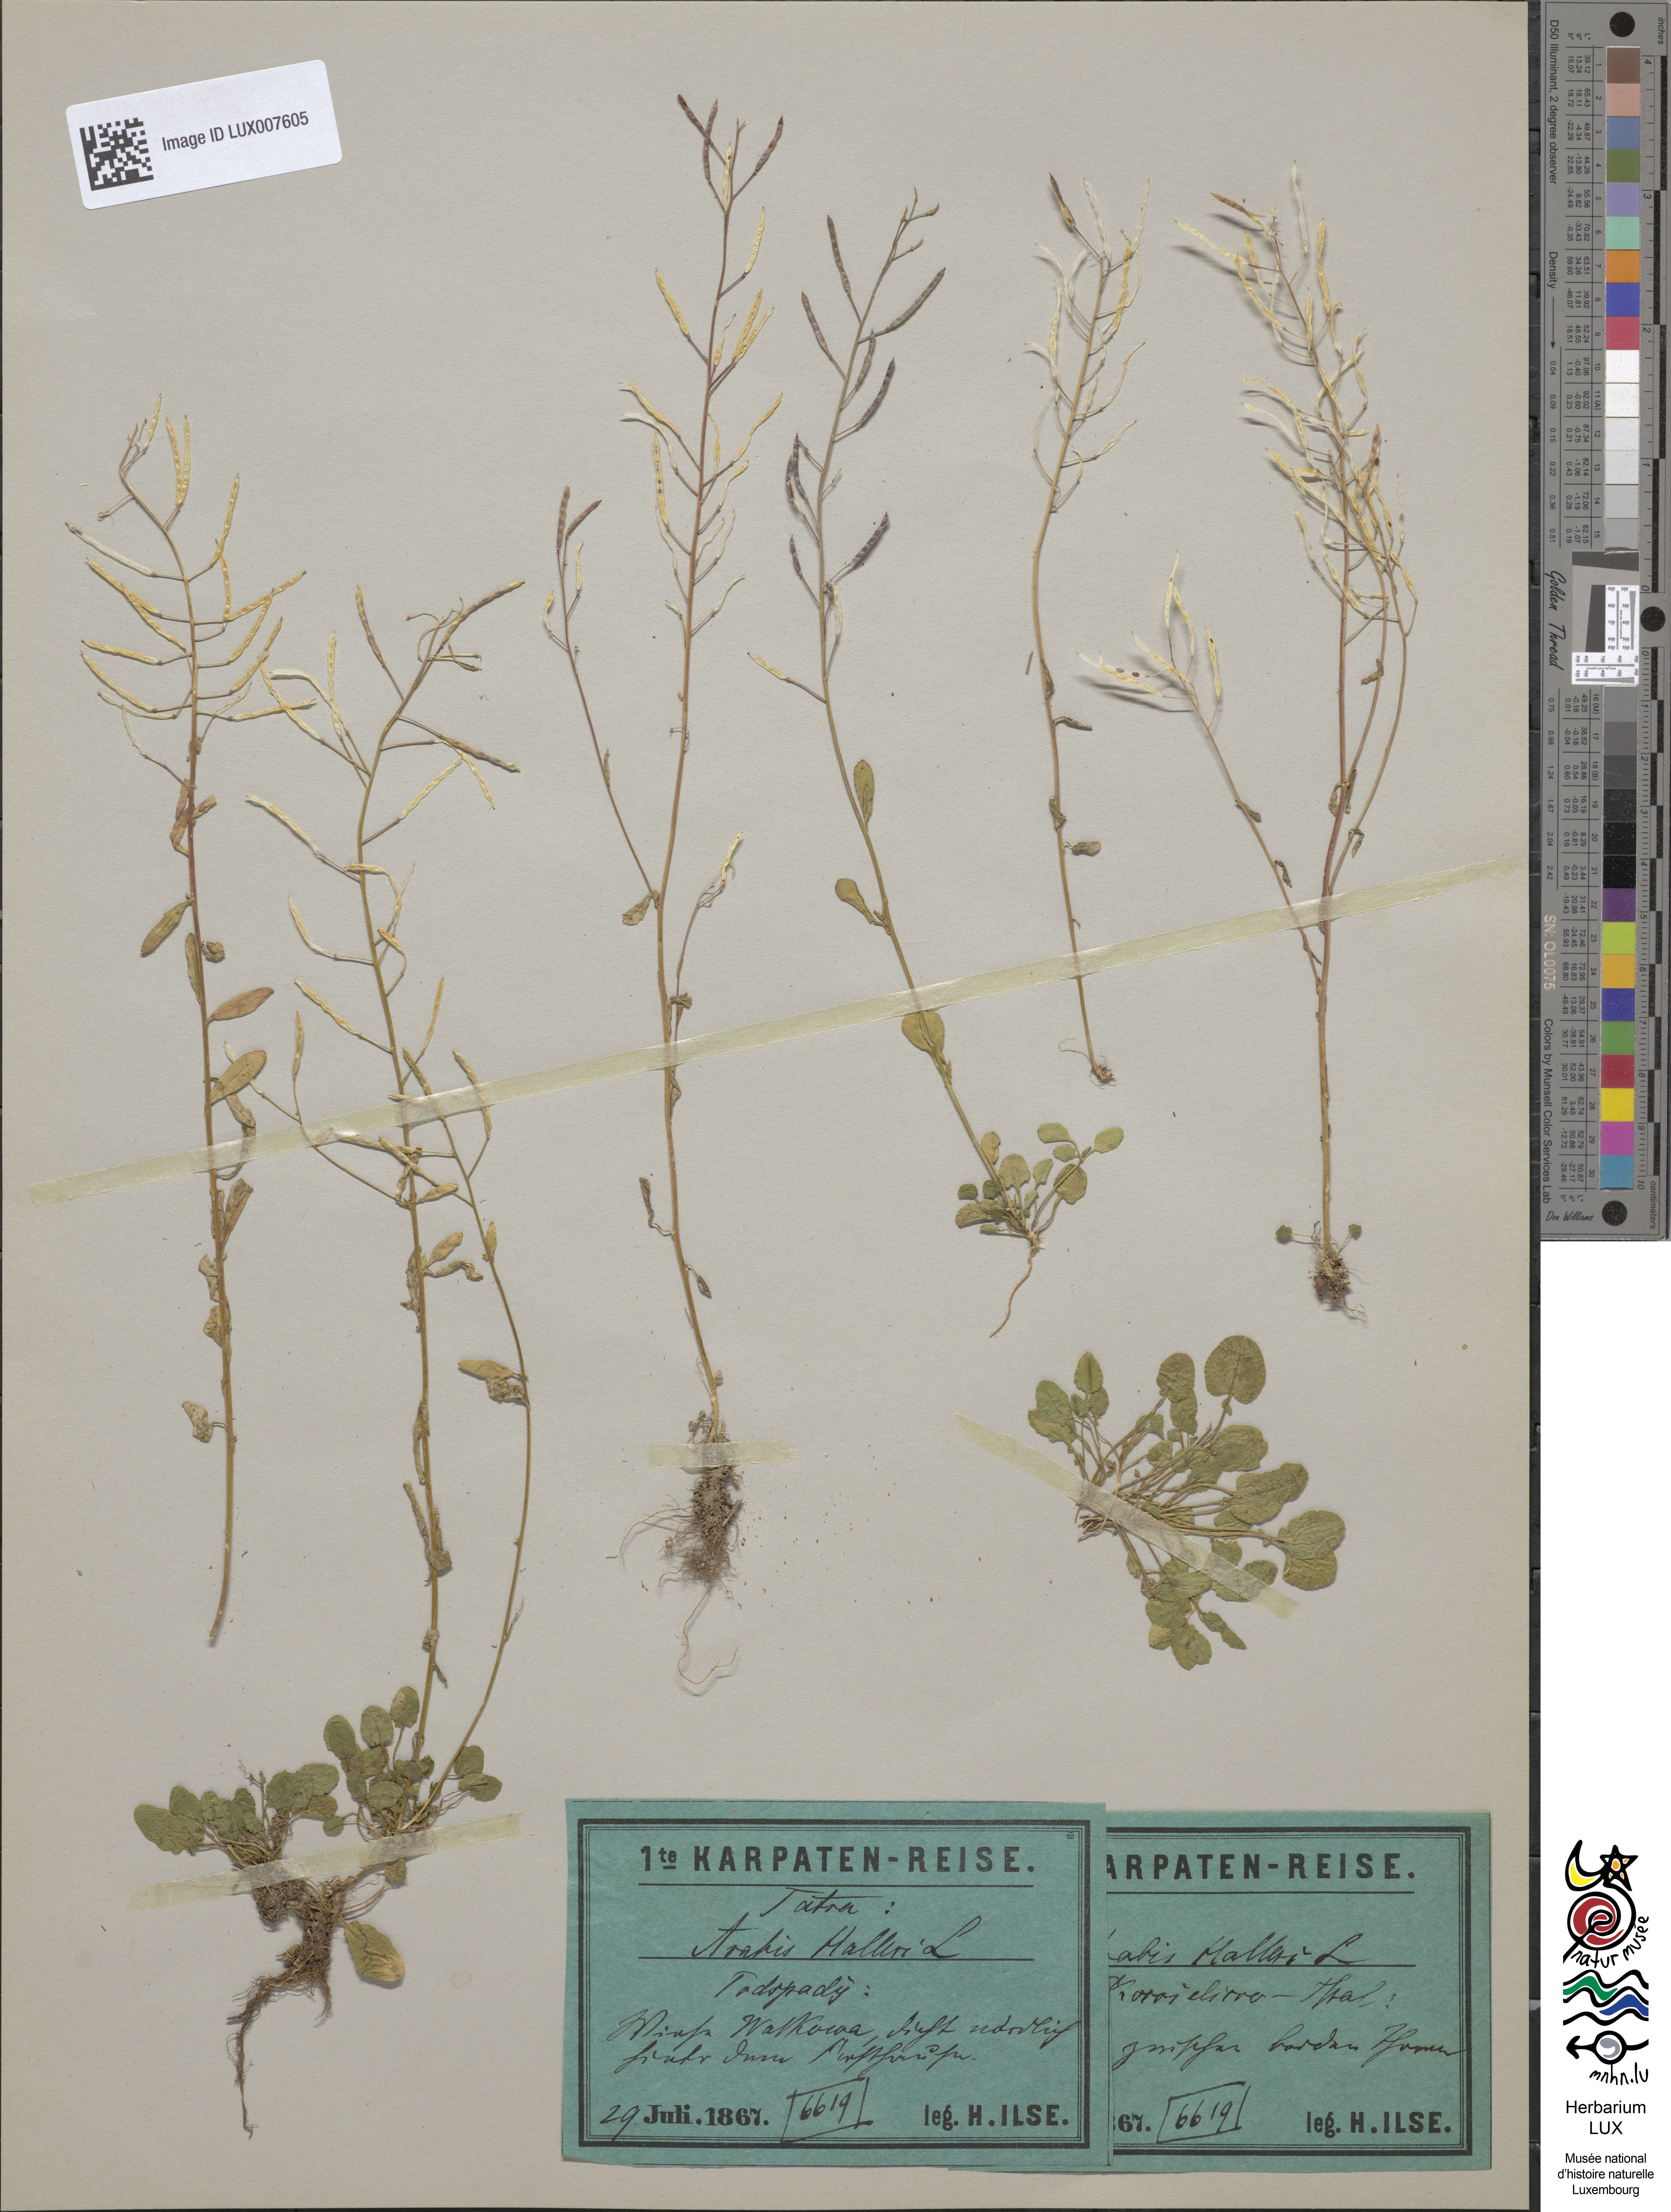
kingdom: Plantae
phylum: Tracheophyta
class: Magnoliopsida
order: Brassicales
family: Brassicaceae
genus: Arabidopsis
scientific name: Arabidopsis halleri
